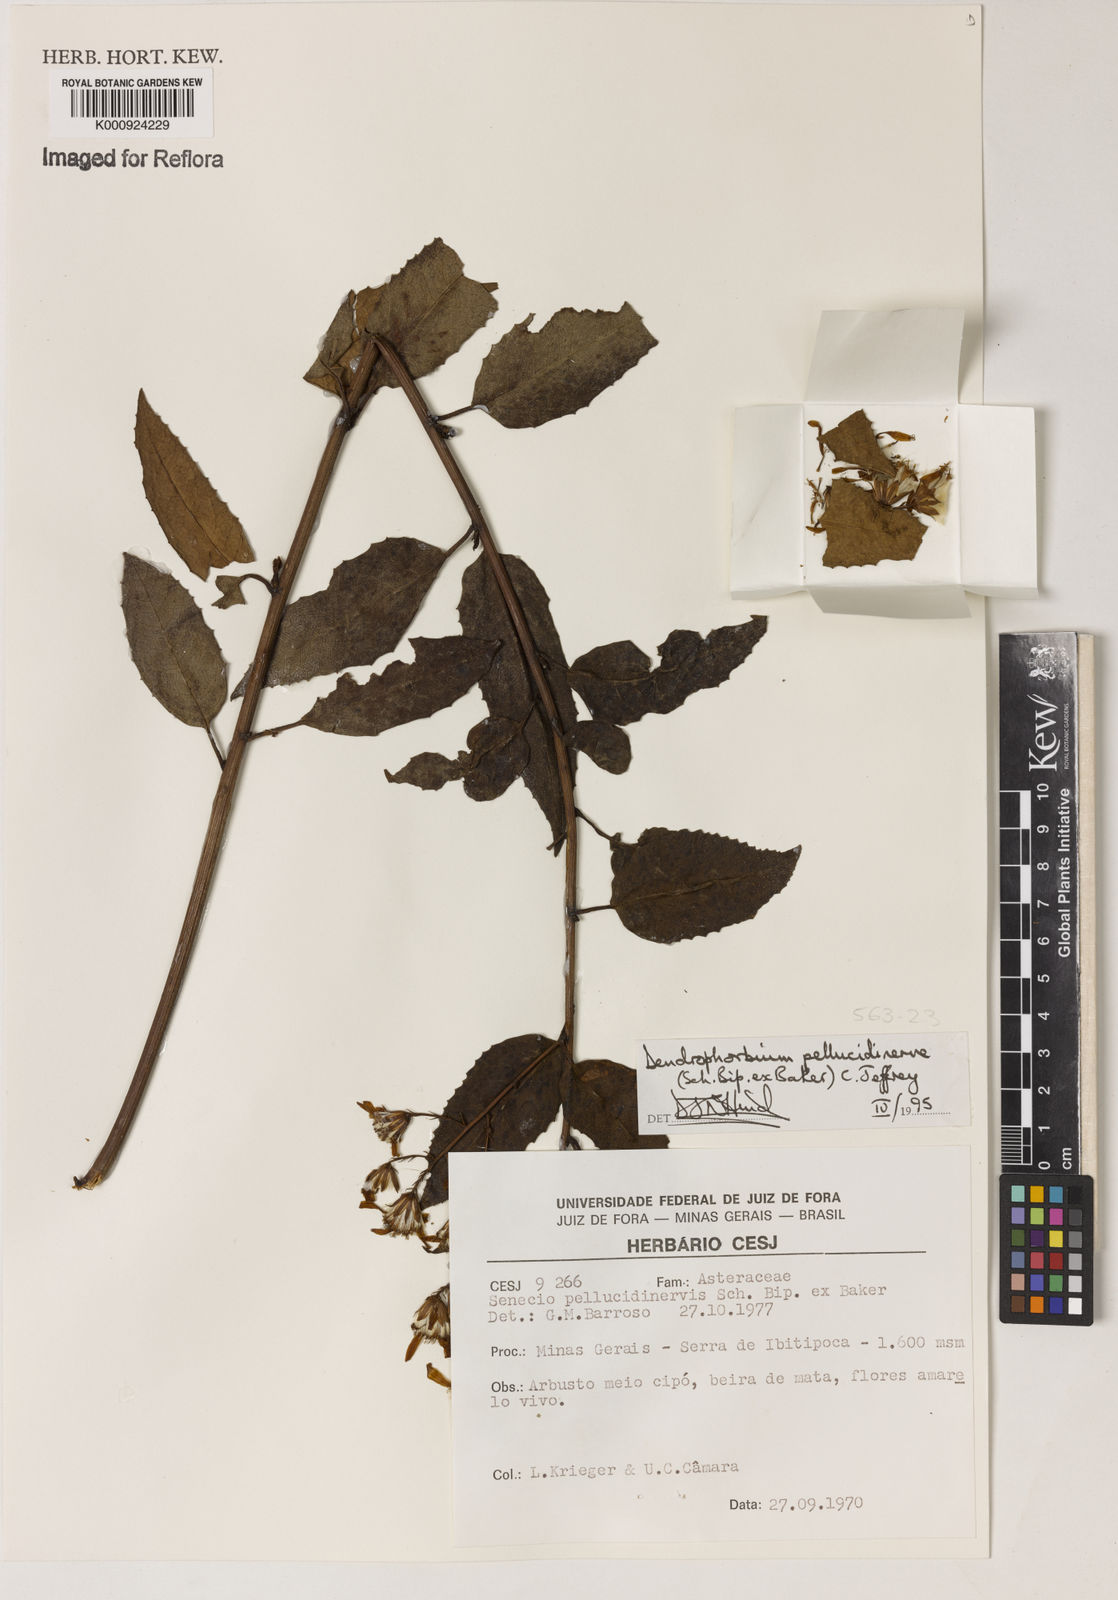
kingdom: Plantae
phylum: Tracheophyta
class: Magnoliopsida
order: Asterales
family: Asteraceae
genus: Dendrophorbium
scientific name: Dendrophorbium pellucidinerve
